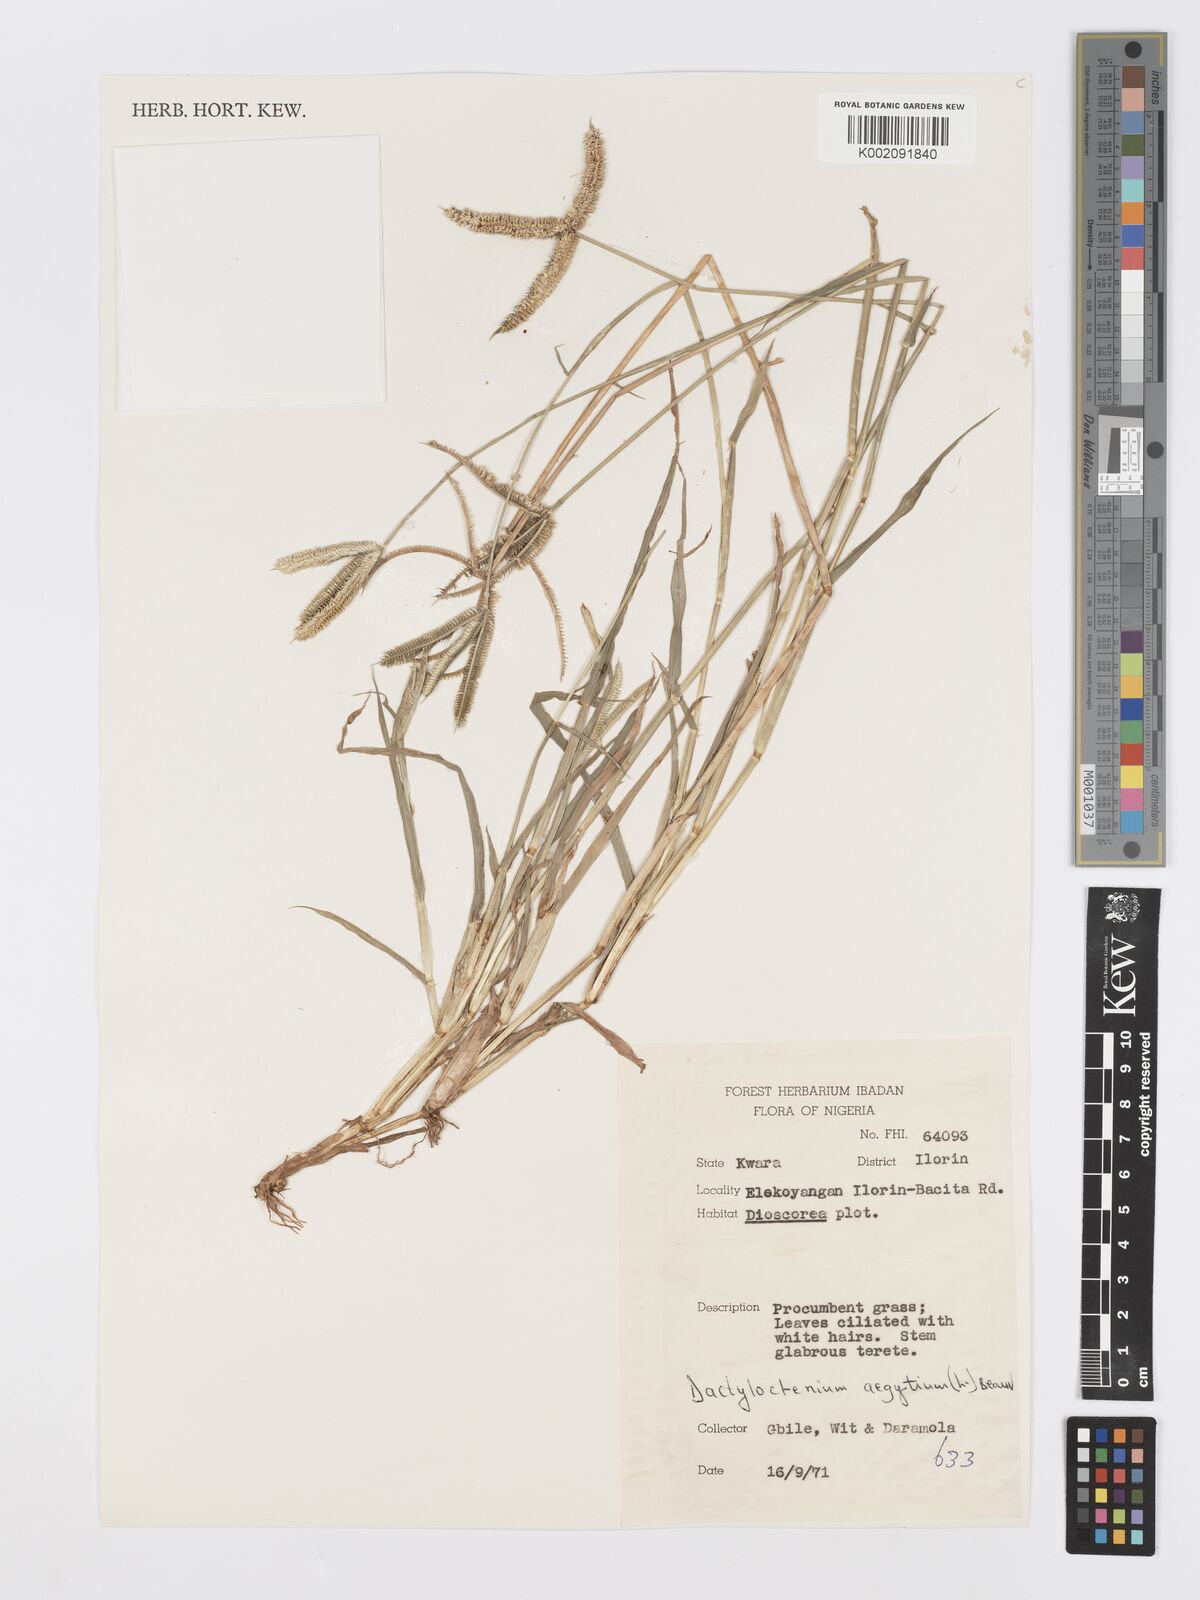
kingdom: Plantae
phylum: Tracheophyta
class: Liliopsida
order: Poales
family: Poaceae
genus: Dactyloctenium
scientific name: Dactyloctenium aegyptium
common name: Egyptian grass
